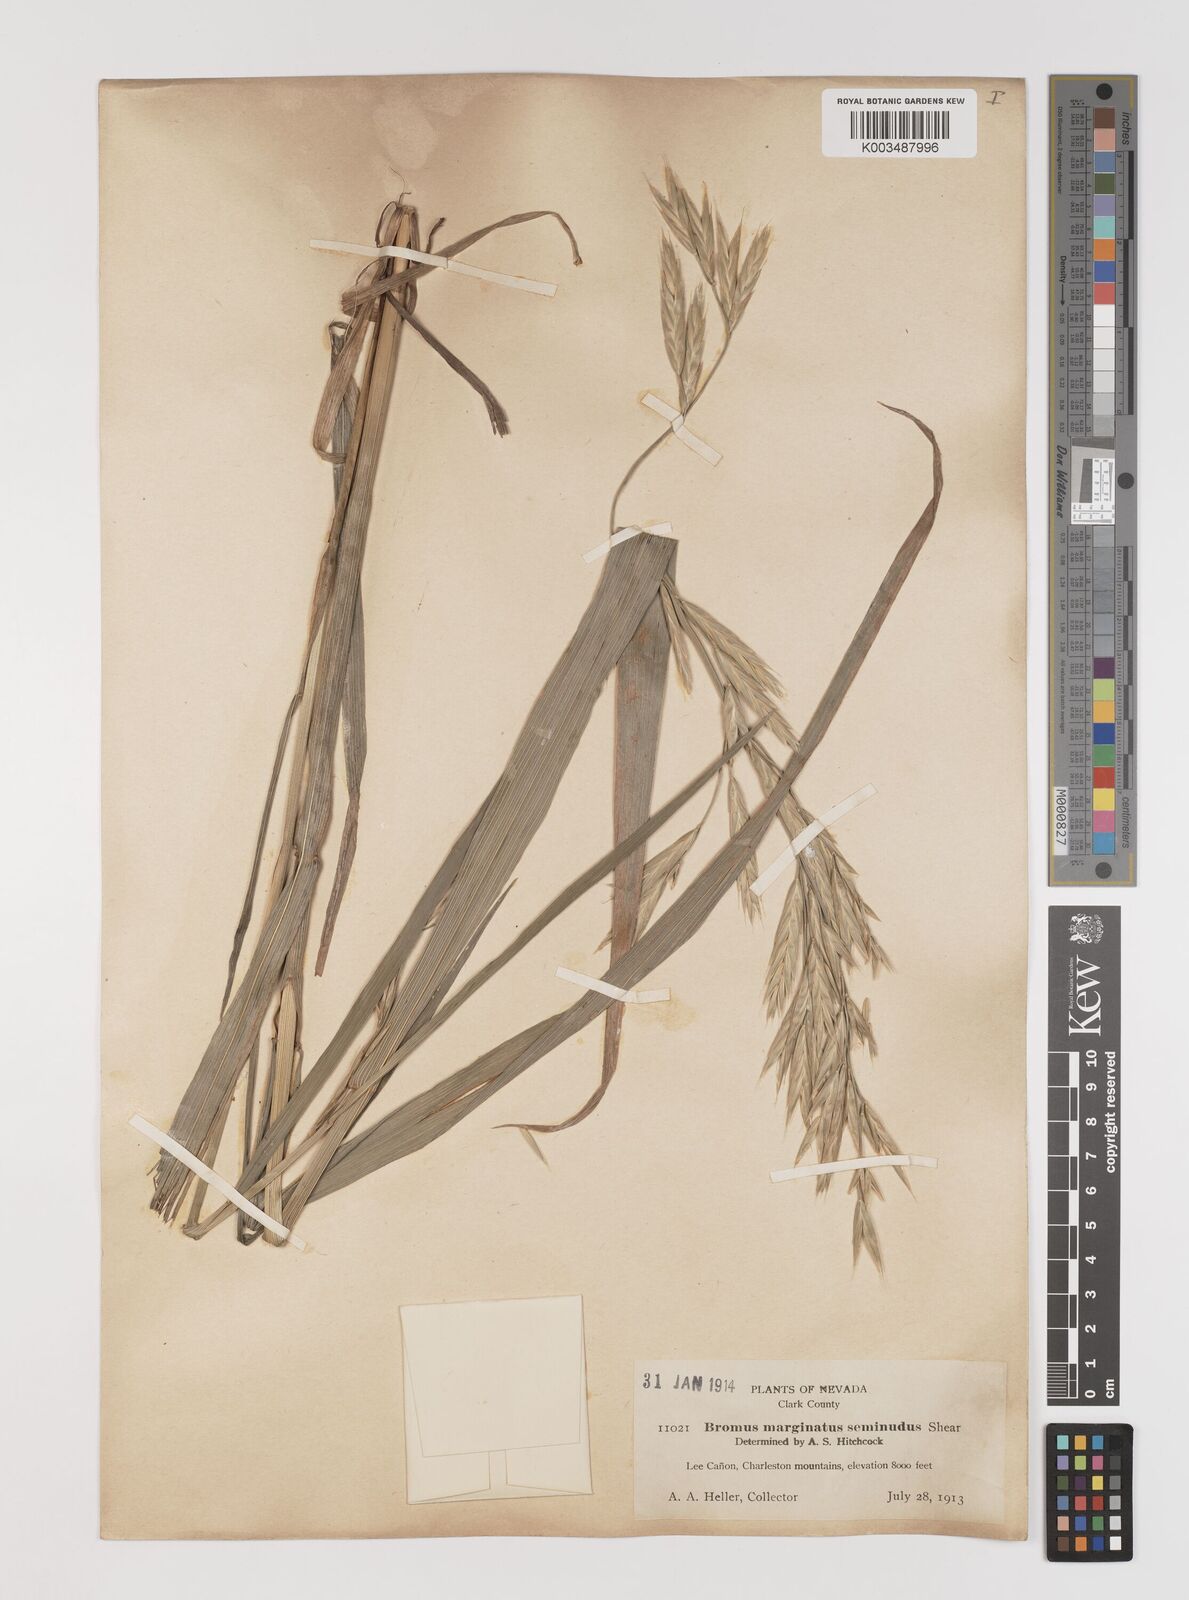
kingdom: Plantae
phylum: Tracheophyta
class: Liliopsida
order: Poales
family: Poaceae
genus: Bromus
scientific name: Bromus marginatus
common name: Western brome
